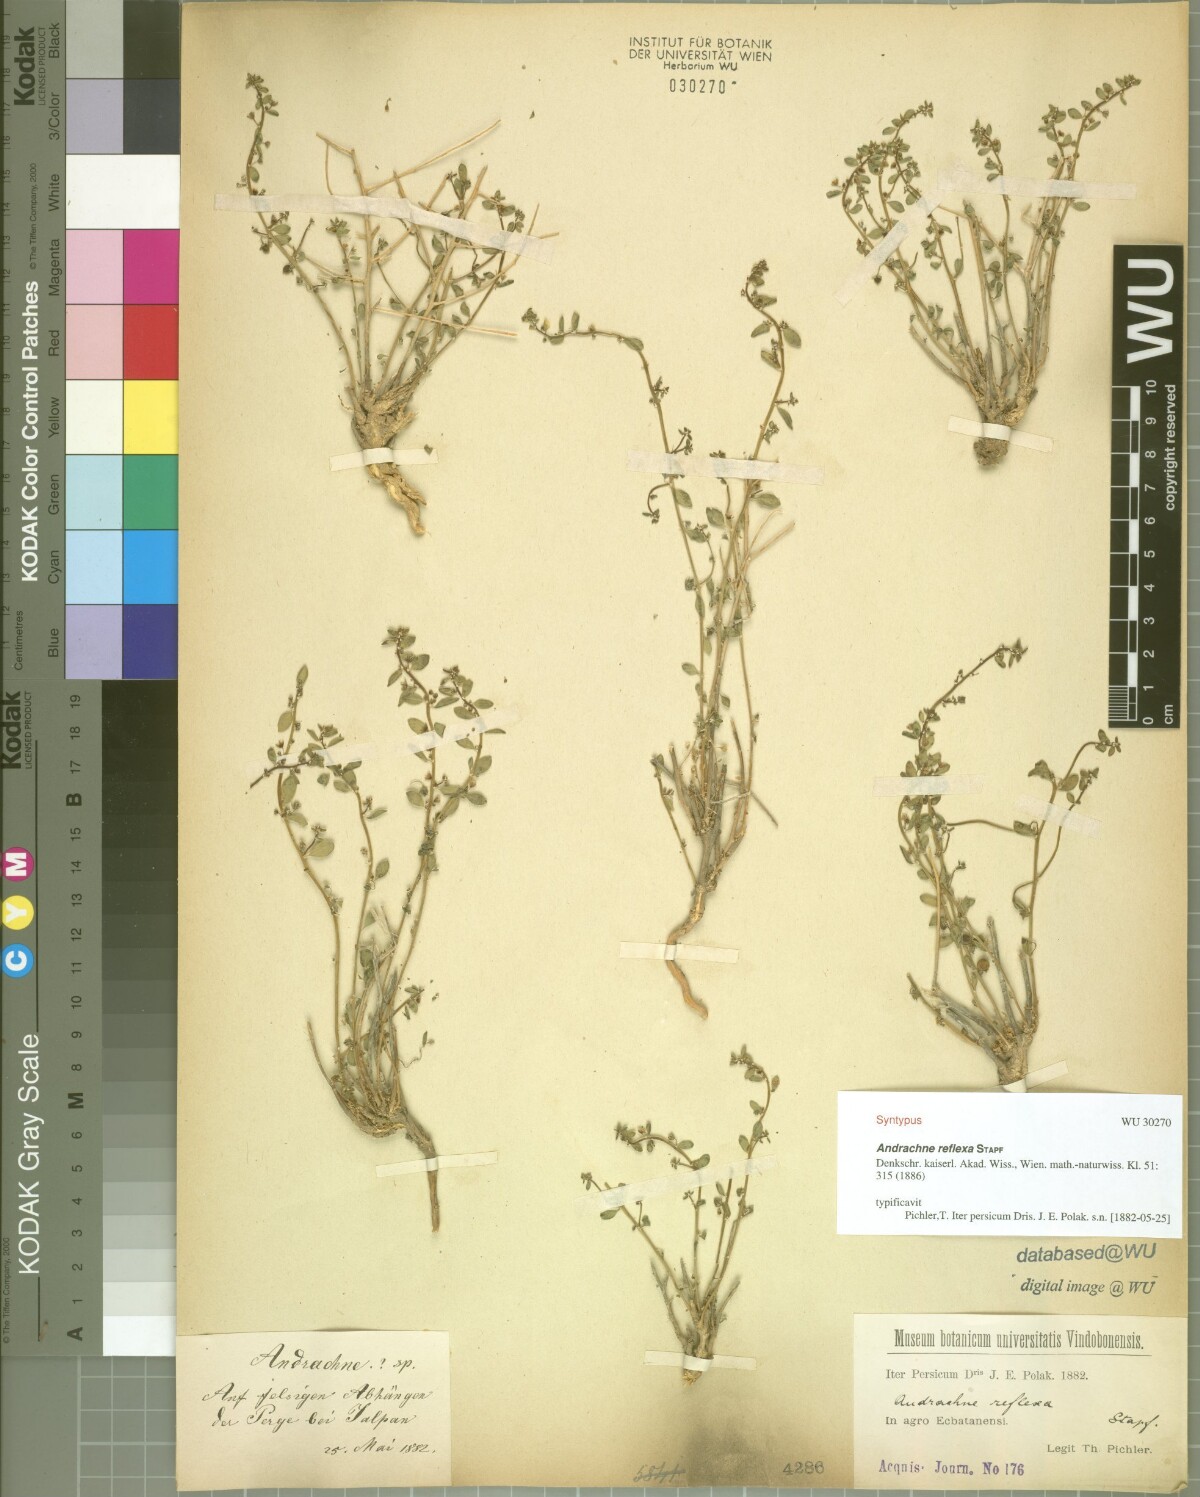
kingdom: Plantae
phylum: Tracheophyta
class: Magnoliopsida
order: Malpighiales
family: Phyllanthaceae
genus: Andrachne
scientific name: Andrachne reflexa
